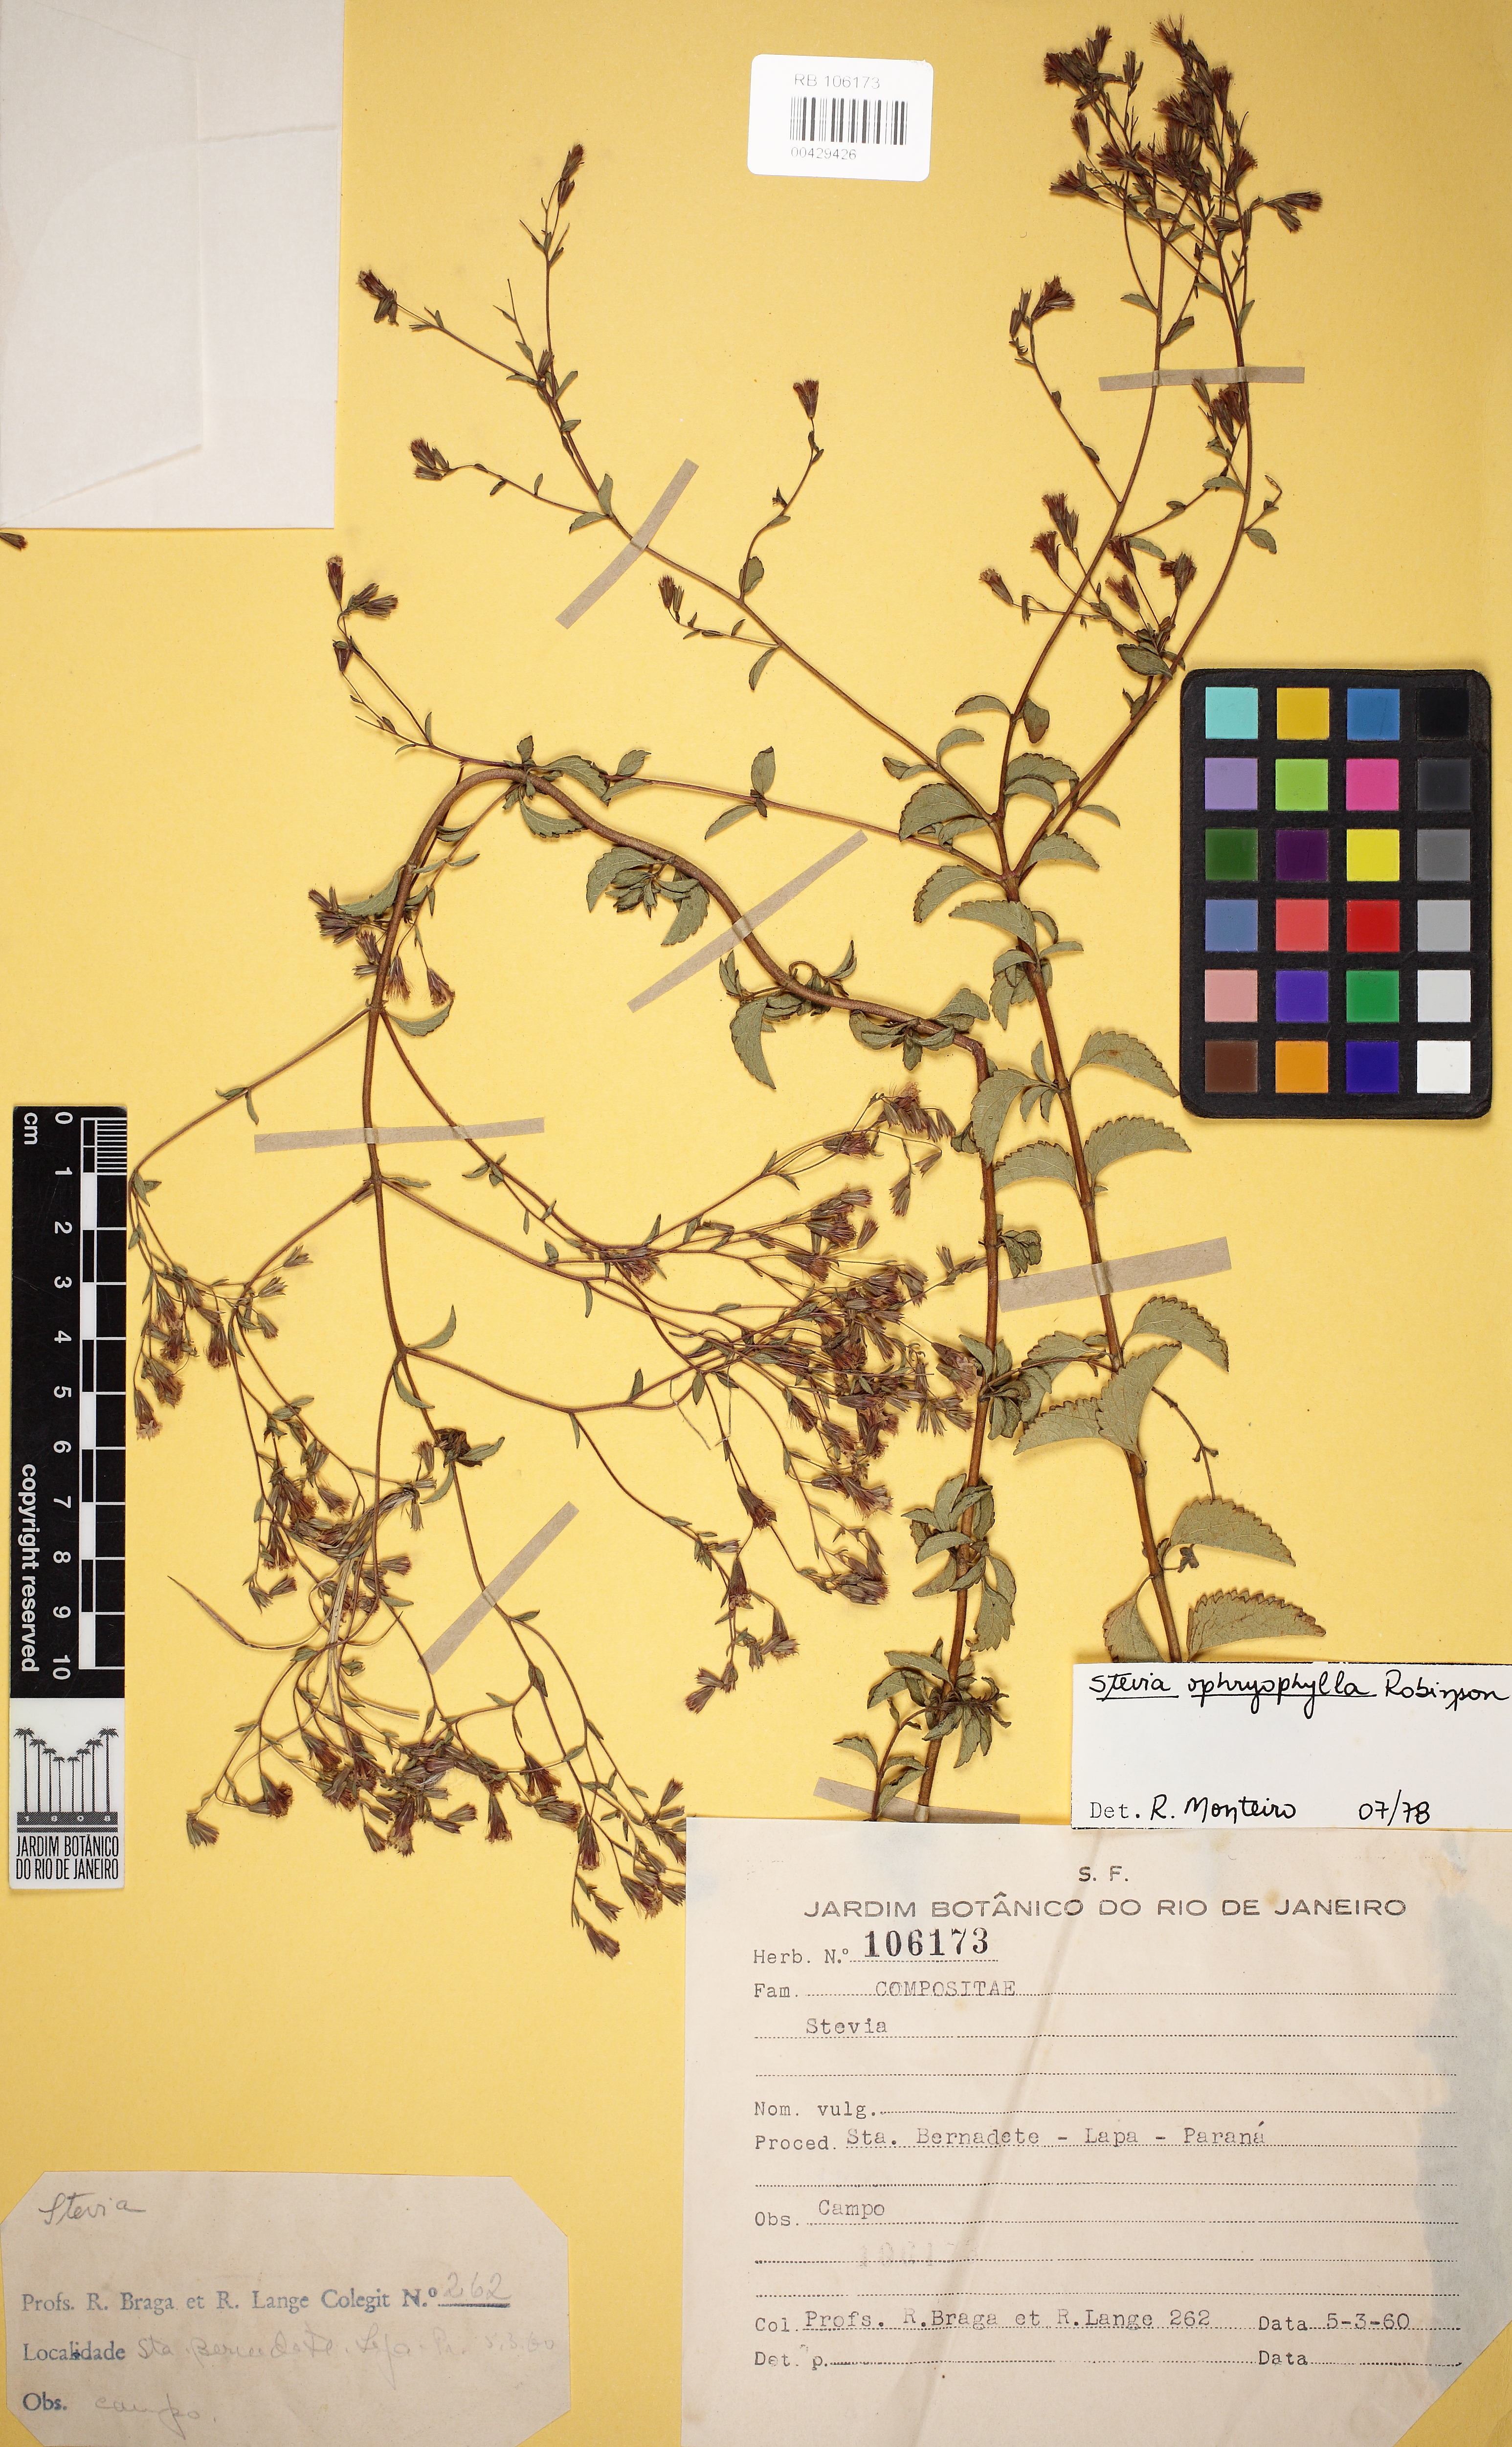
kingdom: Plantae
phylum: Tracheophyta
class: Magnoliopsida
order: Asterales
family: Asteraceae
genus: Stevia
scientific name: Stevia ophryophylla
